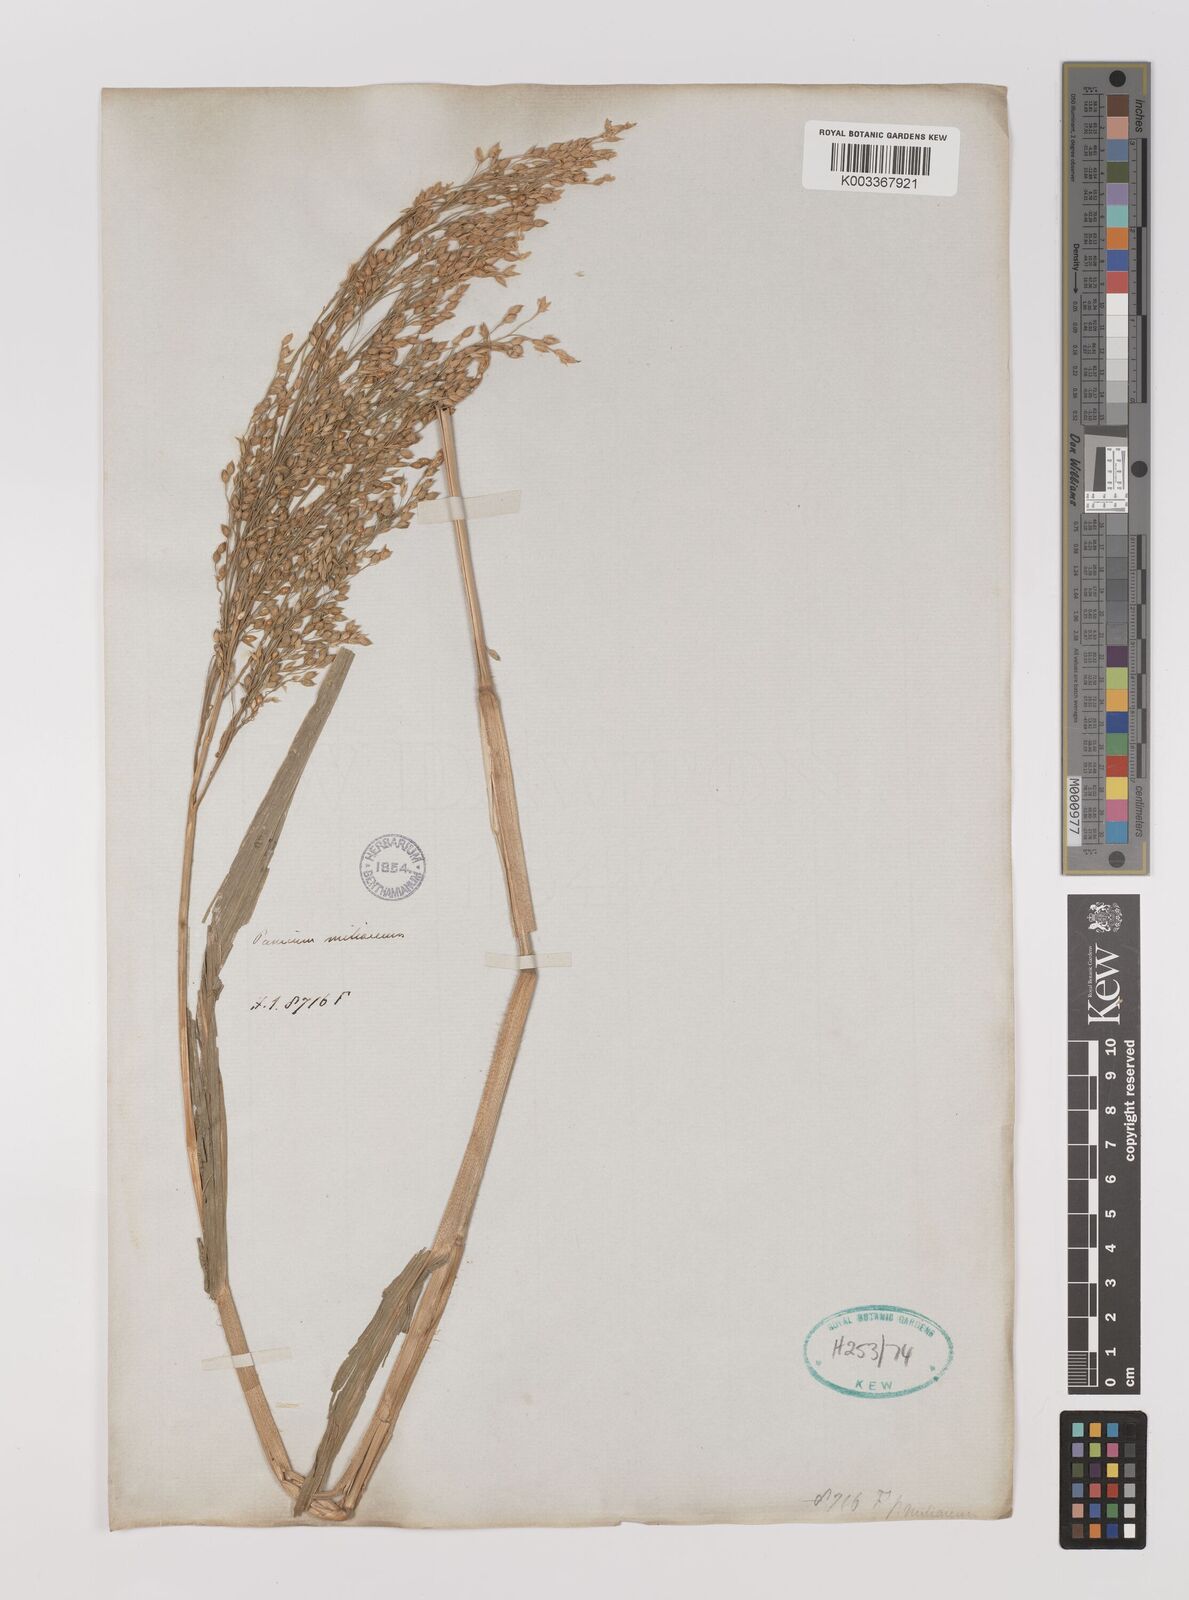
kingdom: Plantae
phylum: Tracheophyta
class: Liliopsida
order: Poales
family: Poaceae
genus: Panicum
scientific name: Panicum miliaceum
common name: Common millet
